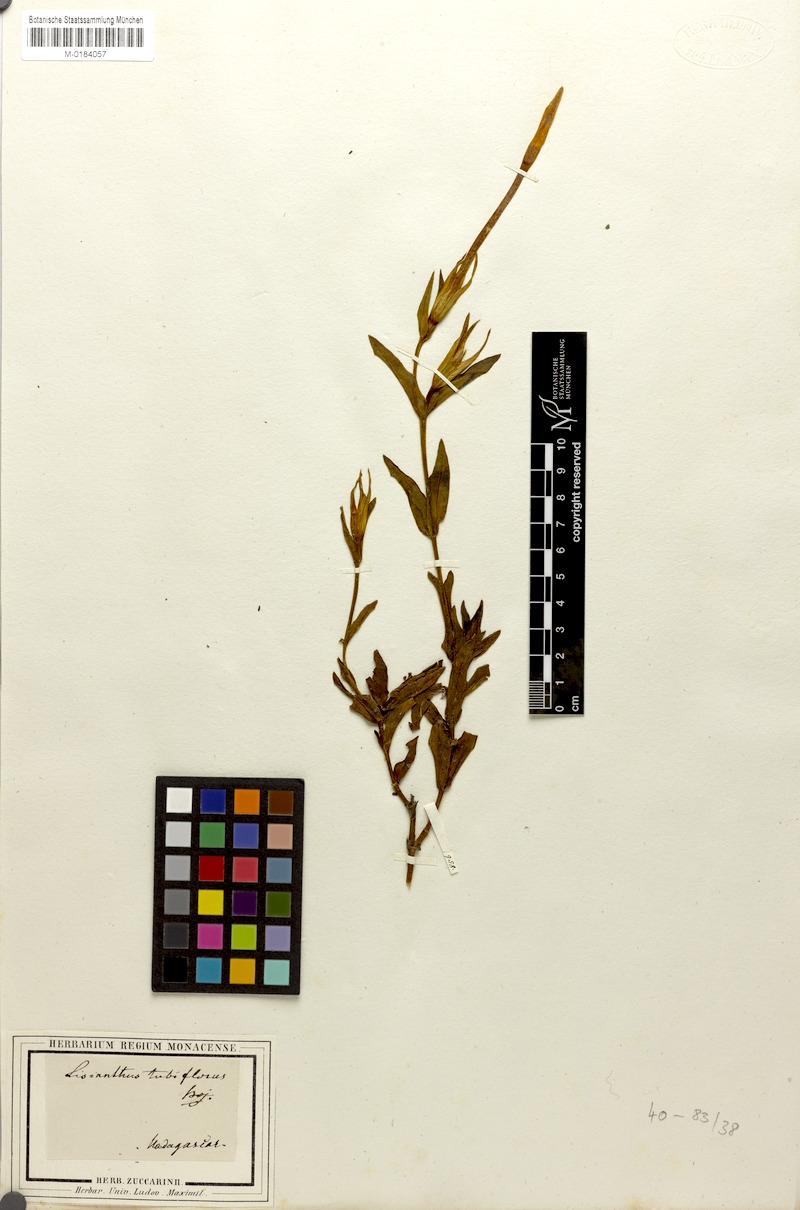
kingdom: Plantae
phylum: Tracheophyta
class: Magnoliopsida
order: Gentianales
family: Gentianaceae
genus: Tachiadenus
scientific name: Tachiadenus tubiflorus
